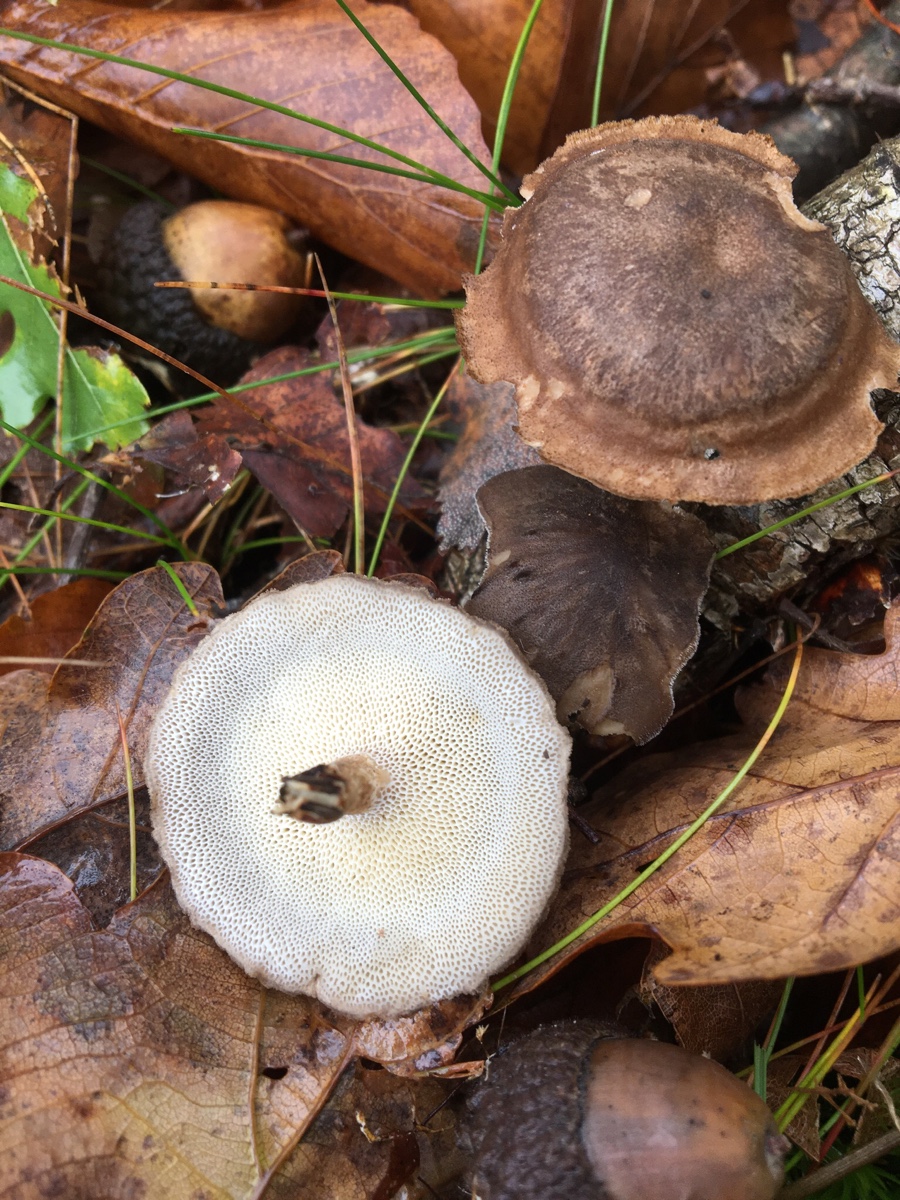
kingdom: Fungi
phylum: Basidiomycota
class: Agaricomycetes
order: Polyporales
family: Polyporaceae
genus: Lentinus
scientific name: Lentinus brumalis
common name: vinter-stilkporesvamp
